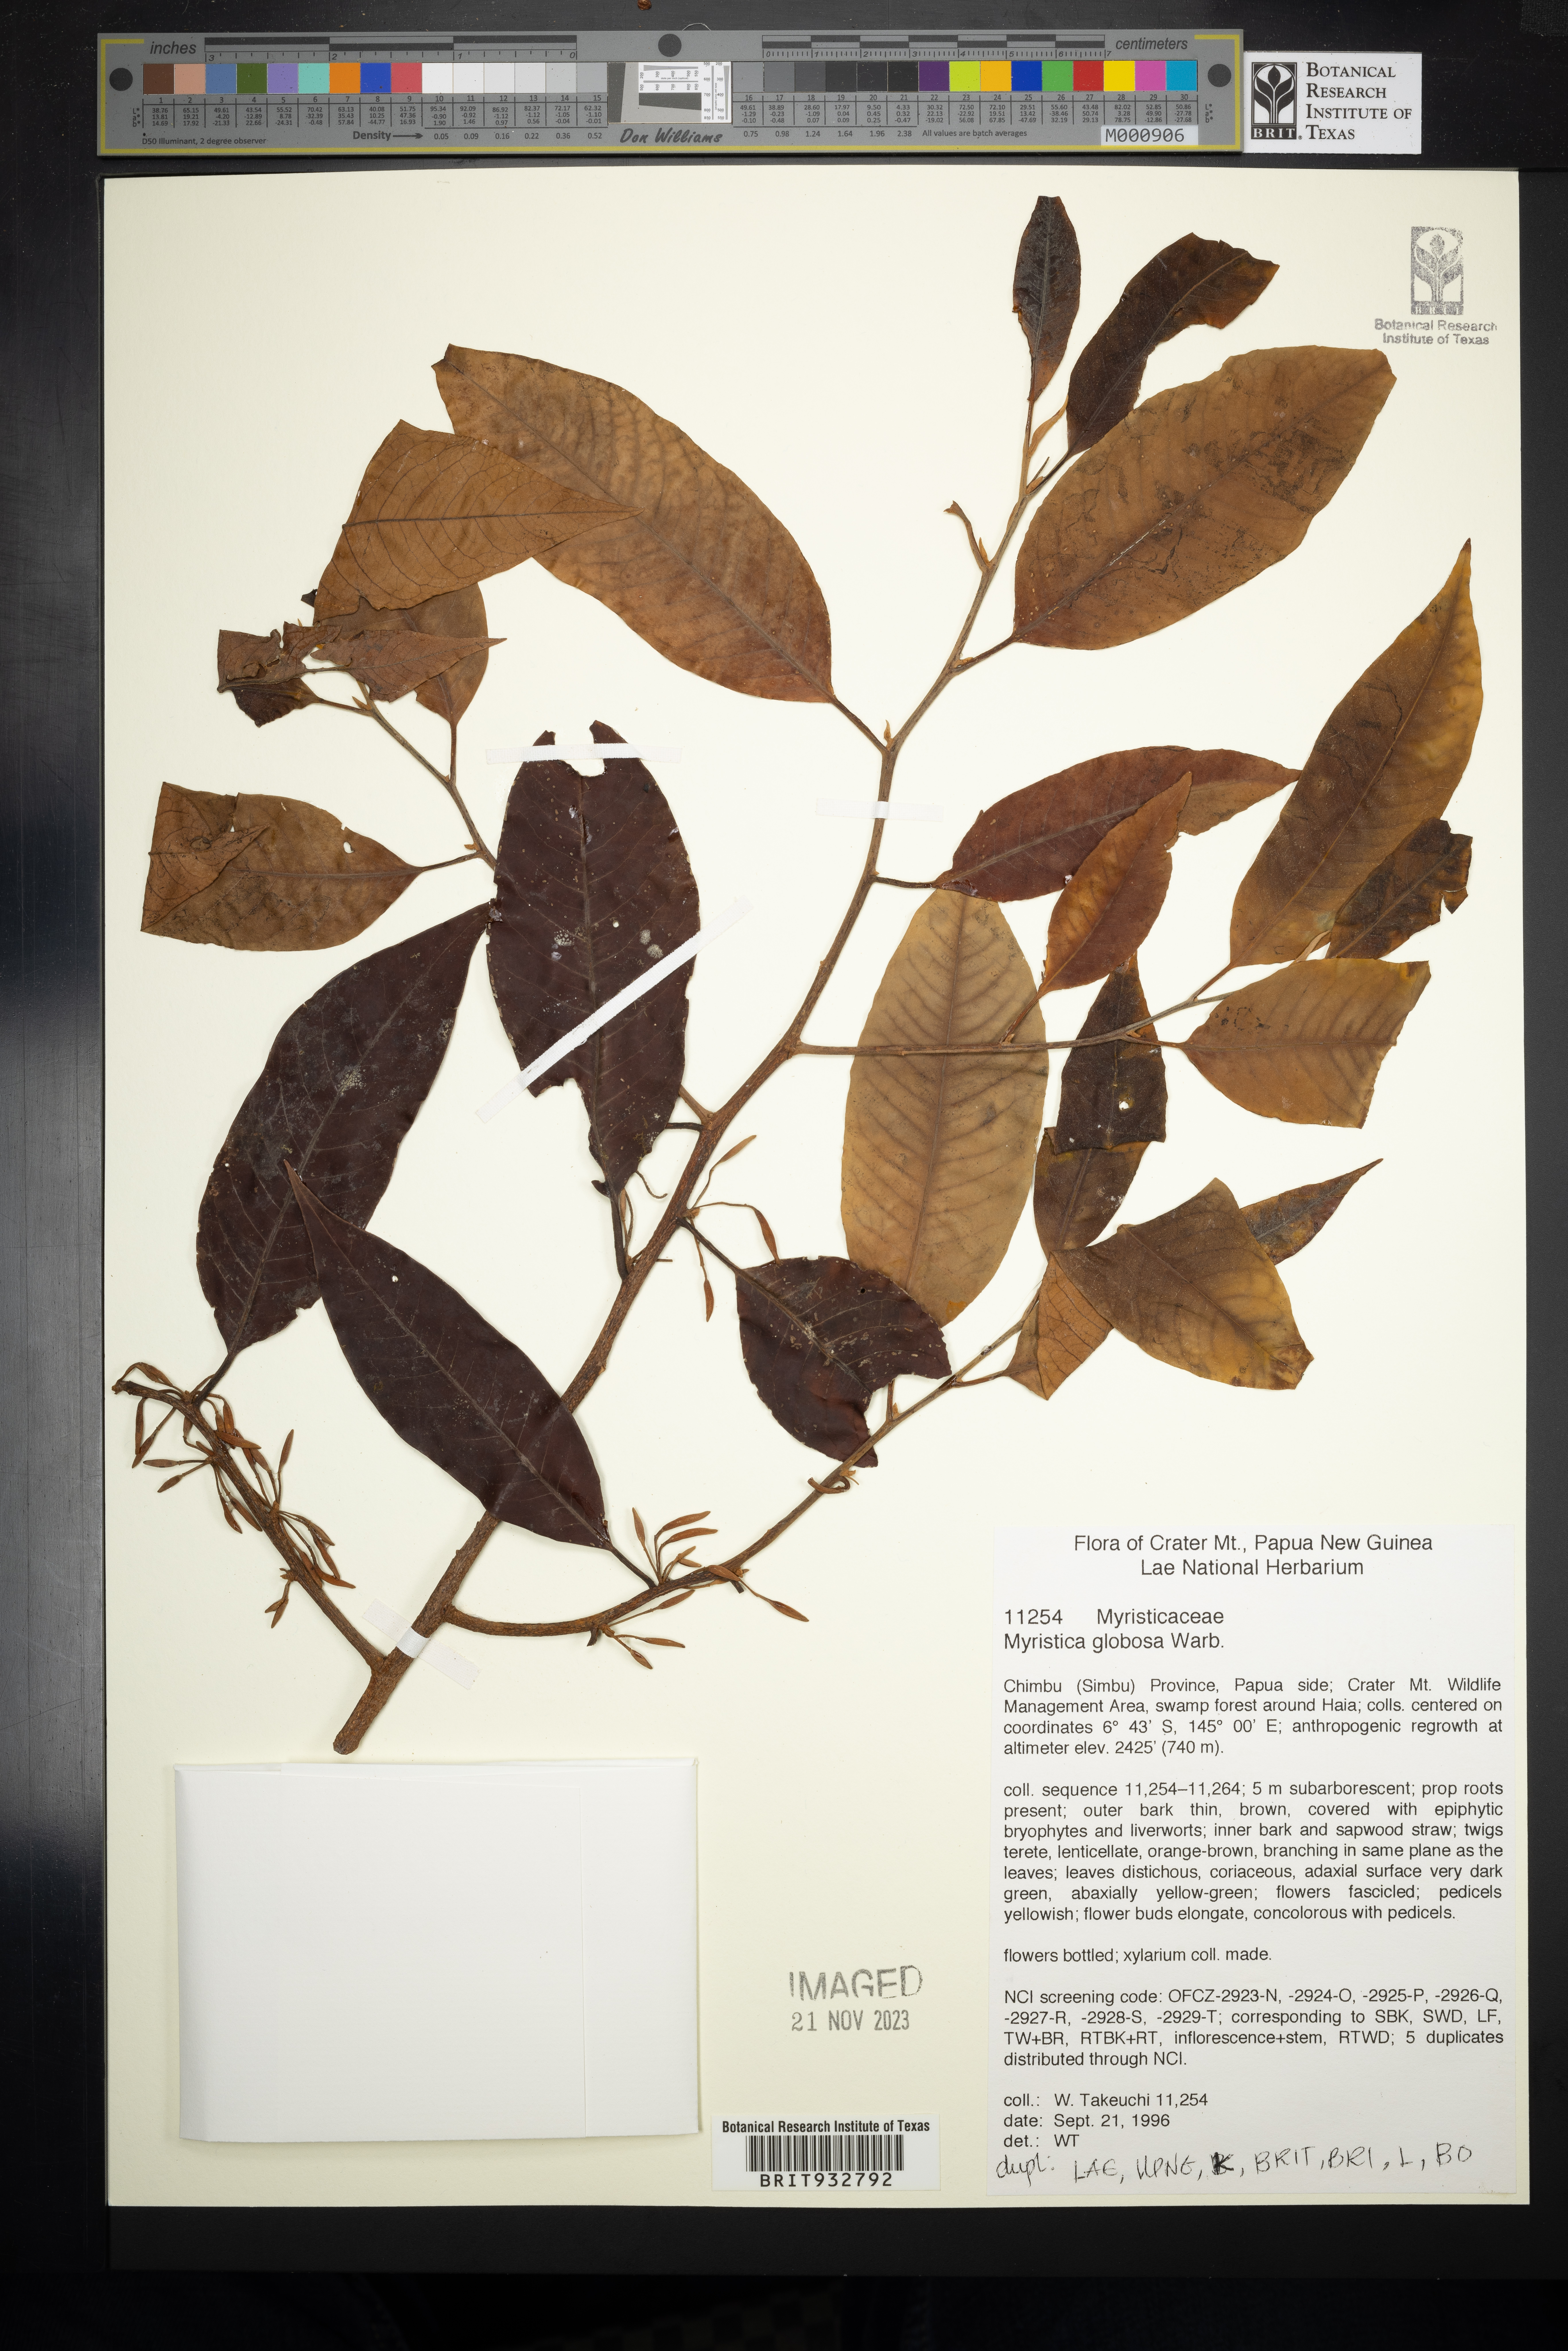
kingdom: Plantae
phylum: Tracheophyta
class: Magnoliopsida
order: Magnoliales
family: Myristicaceae
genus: Myristica
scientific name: Myristica
